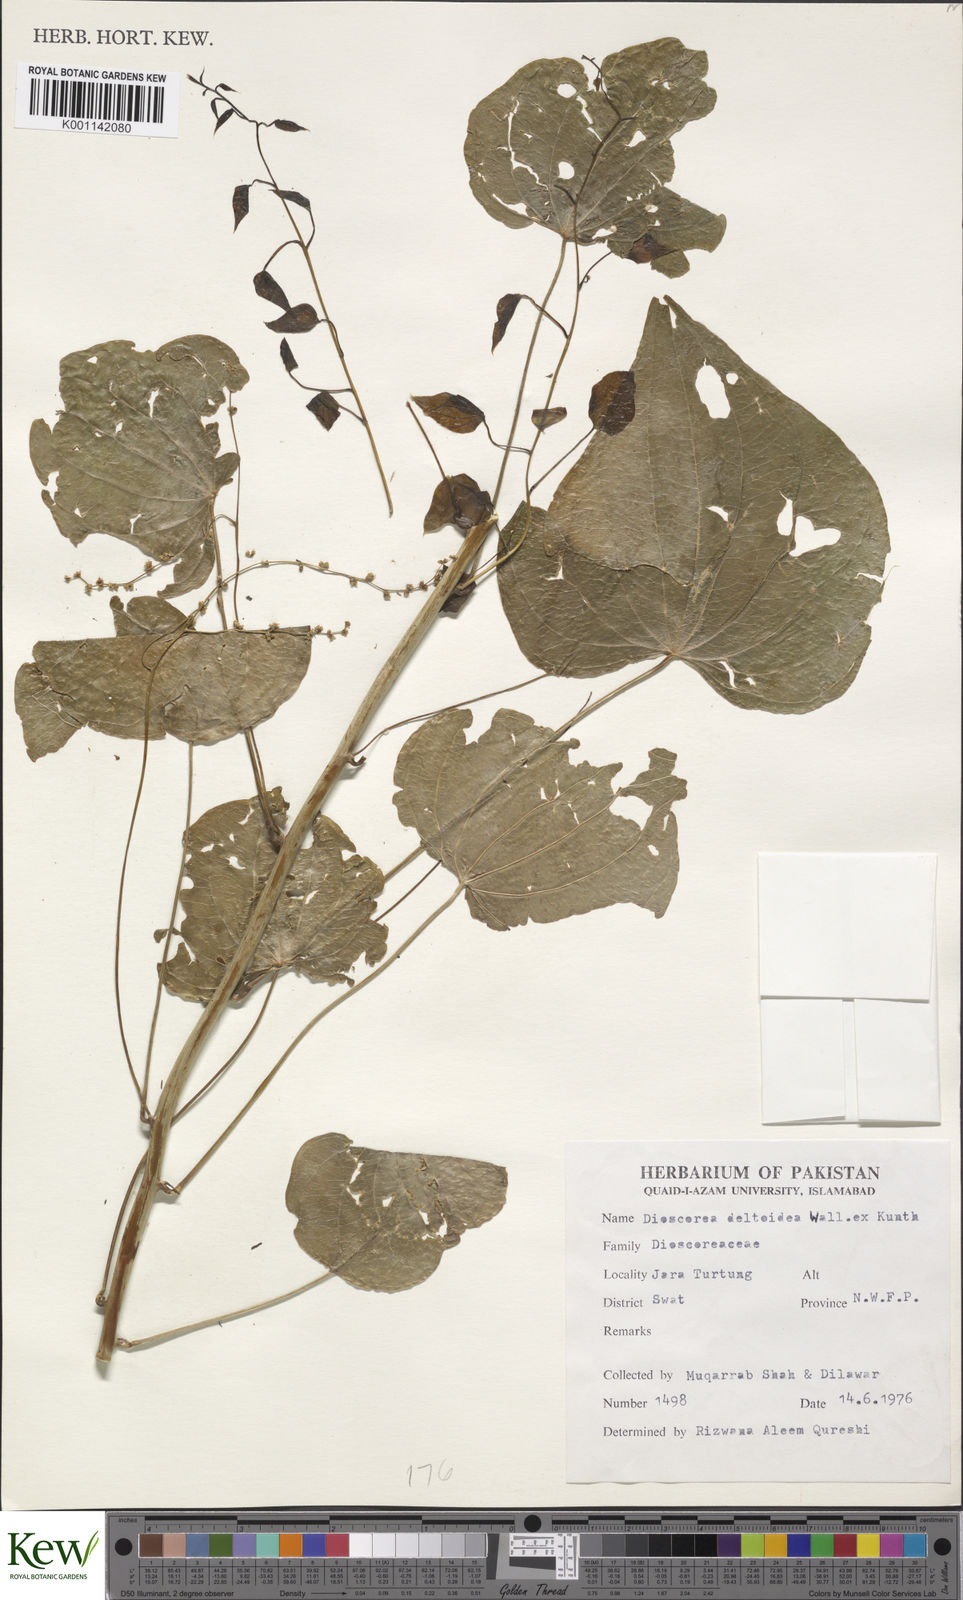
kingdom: Plantae
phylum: Tracheophyta
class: Liliopsida
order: Dioscoreales
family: Dioscoreaceae
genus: Dioscorea
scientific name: Dioscorea deltoidea
